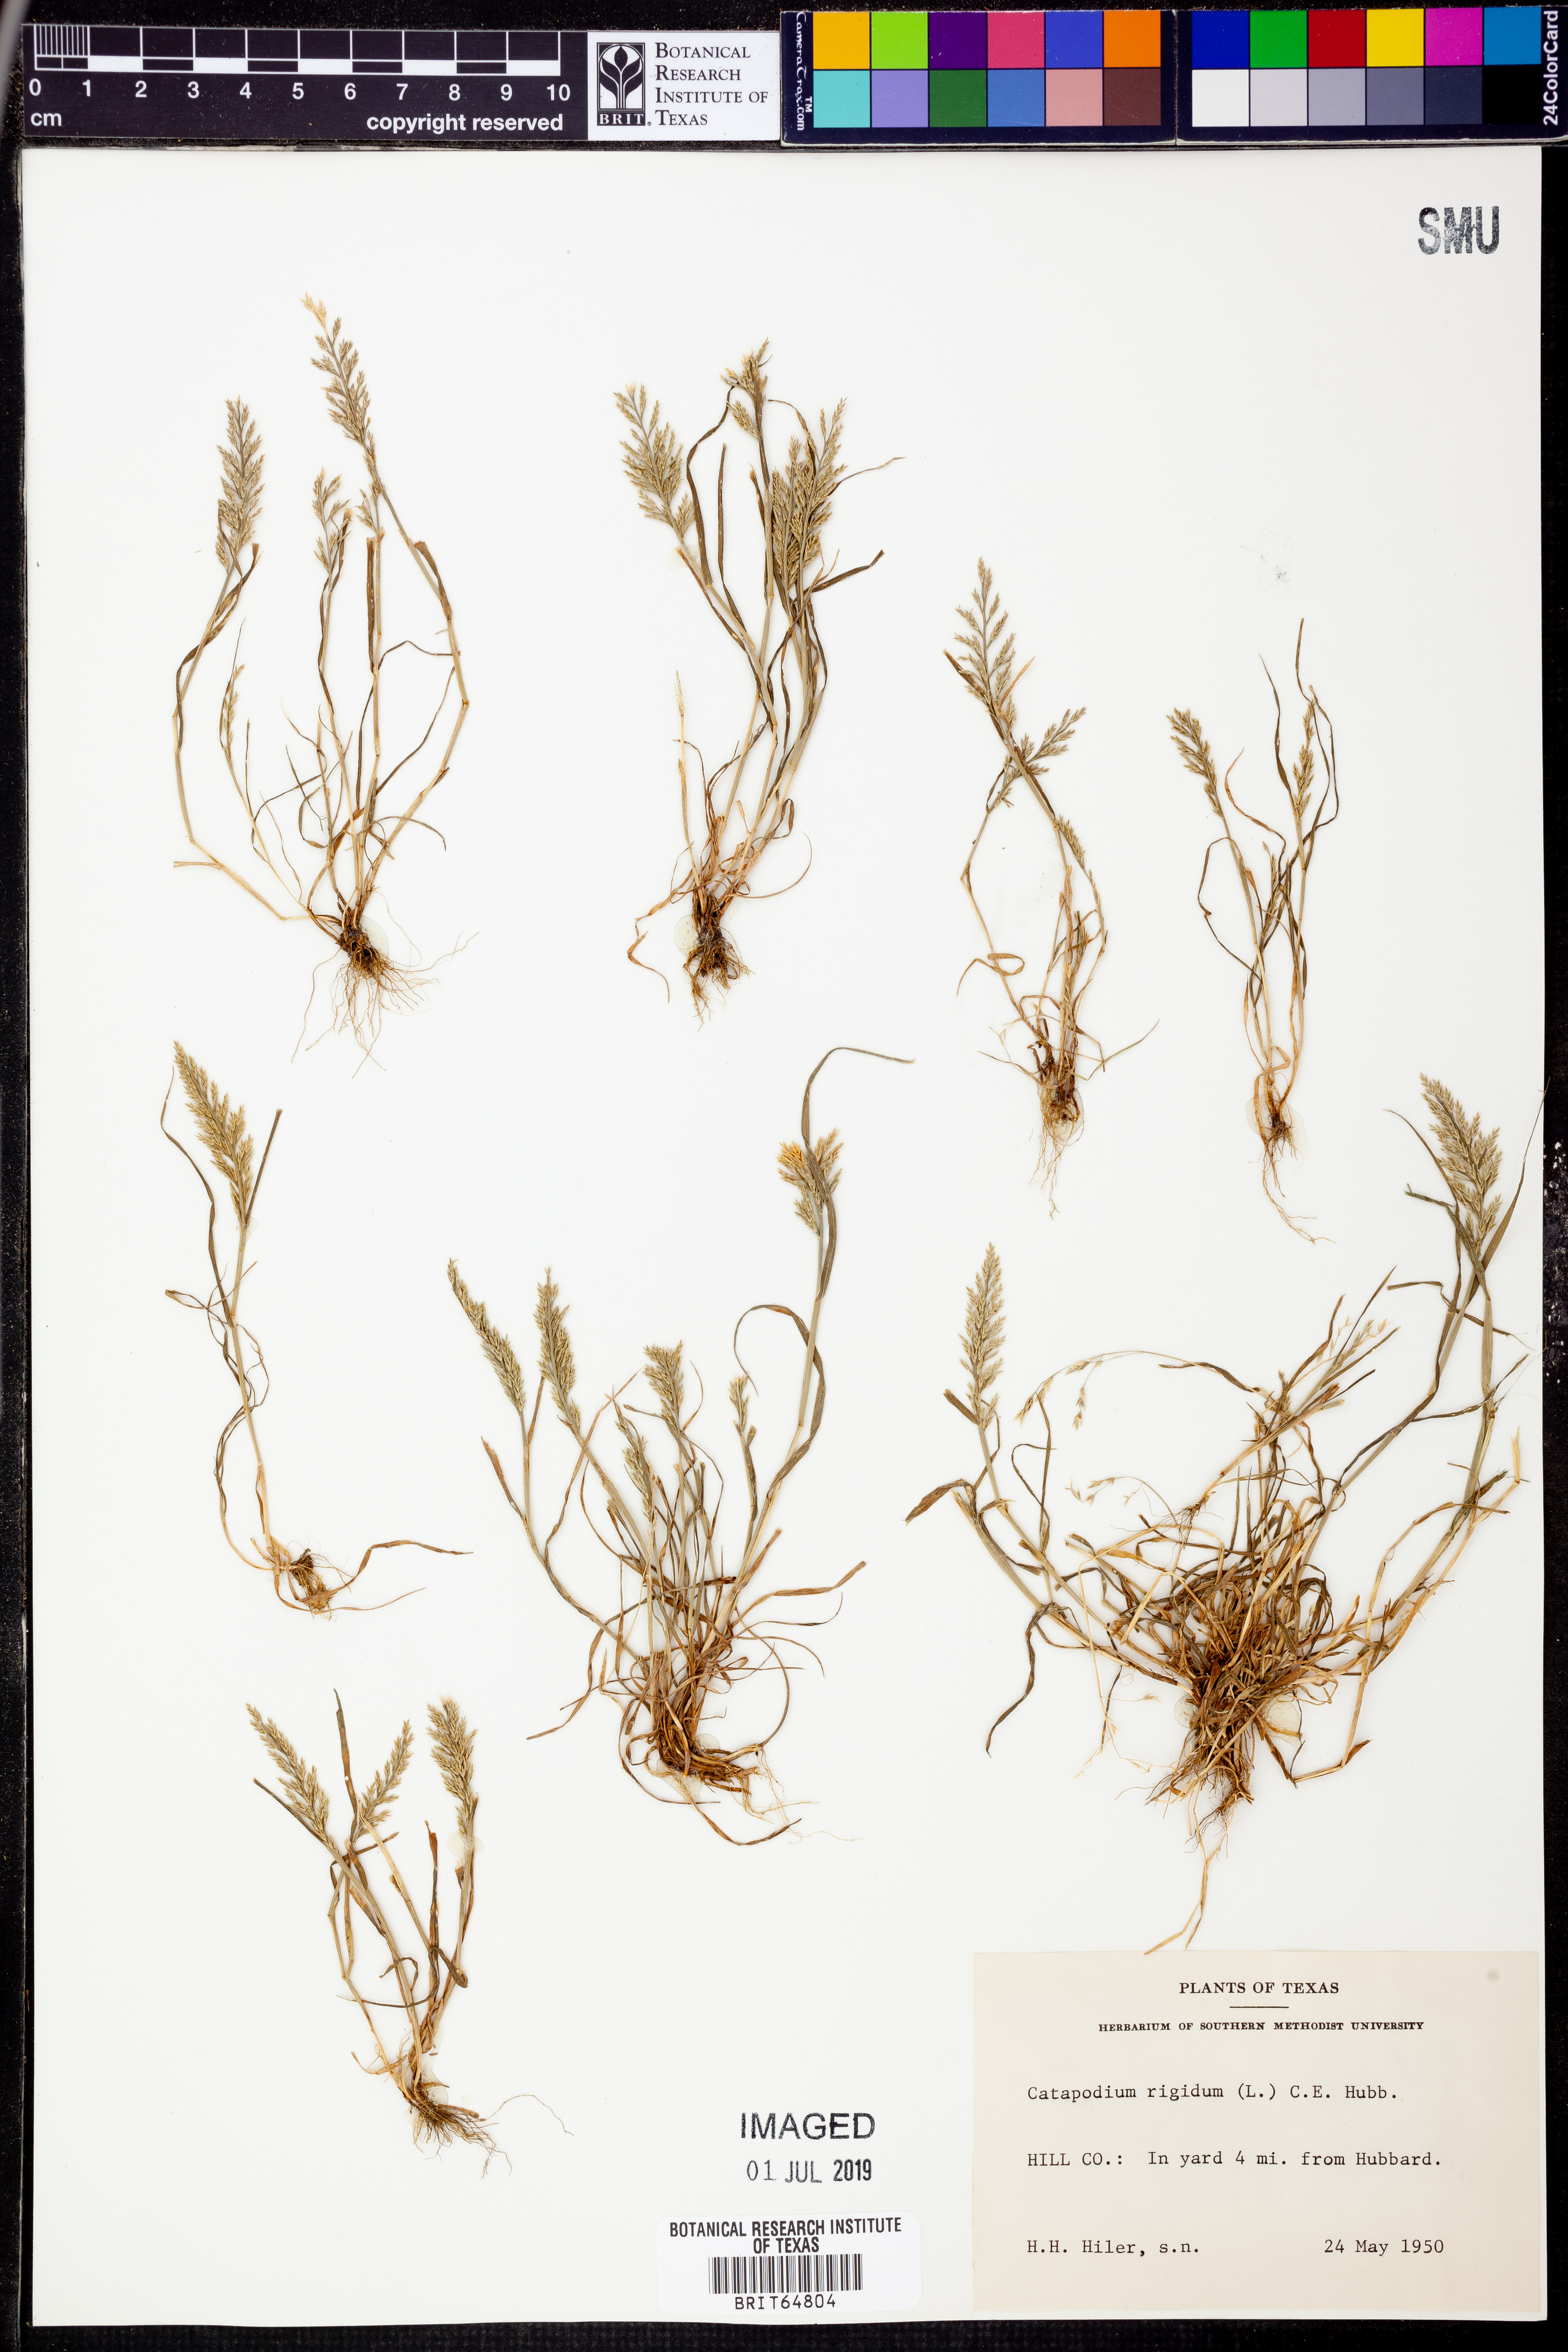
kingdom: Plantae
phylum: Tracheophyta
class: Liliopsida
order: Poales
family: Poaceae
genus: Catapodium
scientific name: Catapodium rigidum
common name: Fern-grass
